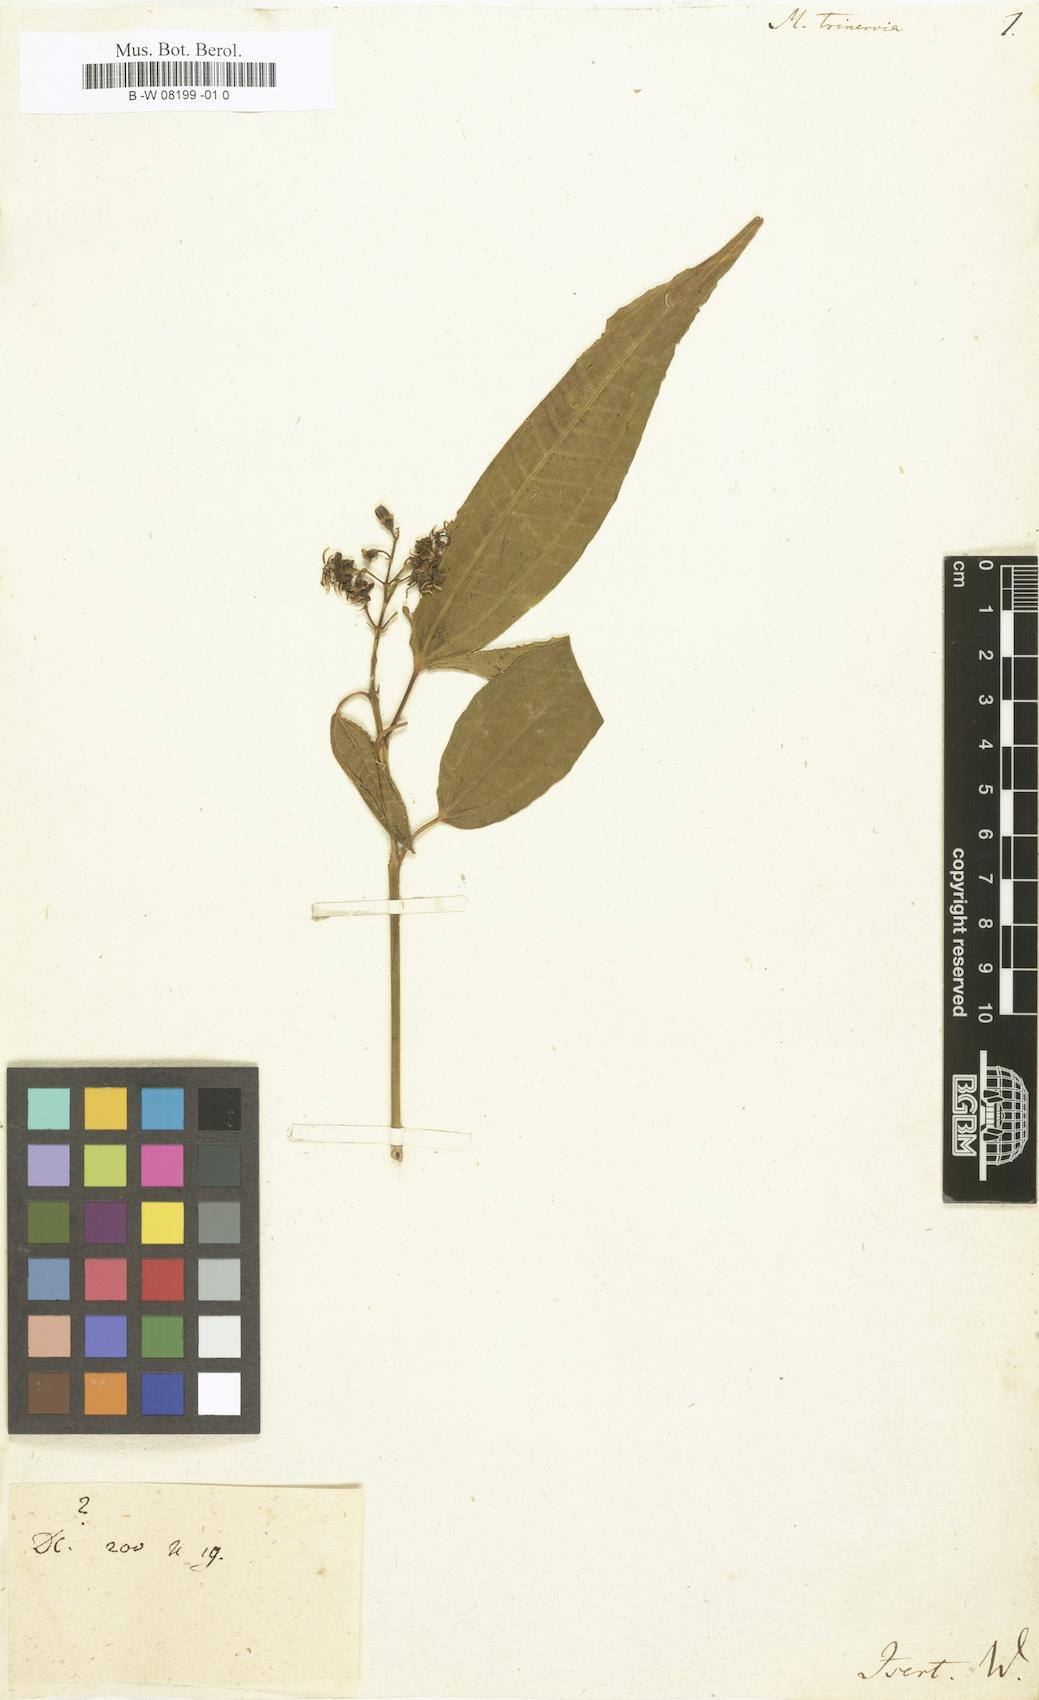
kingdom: Plantae
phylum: Tracheophyta
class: Magnoliopsida
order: Myrtales
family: Melastomataceae
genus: Miconia
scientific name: Miconia
